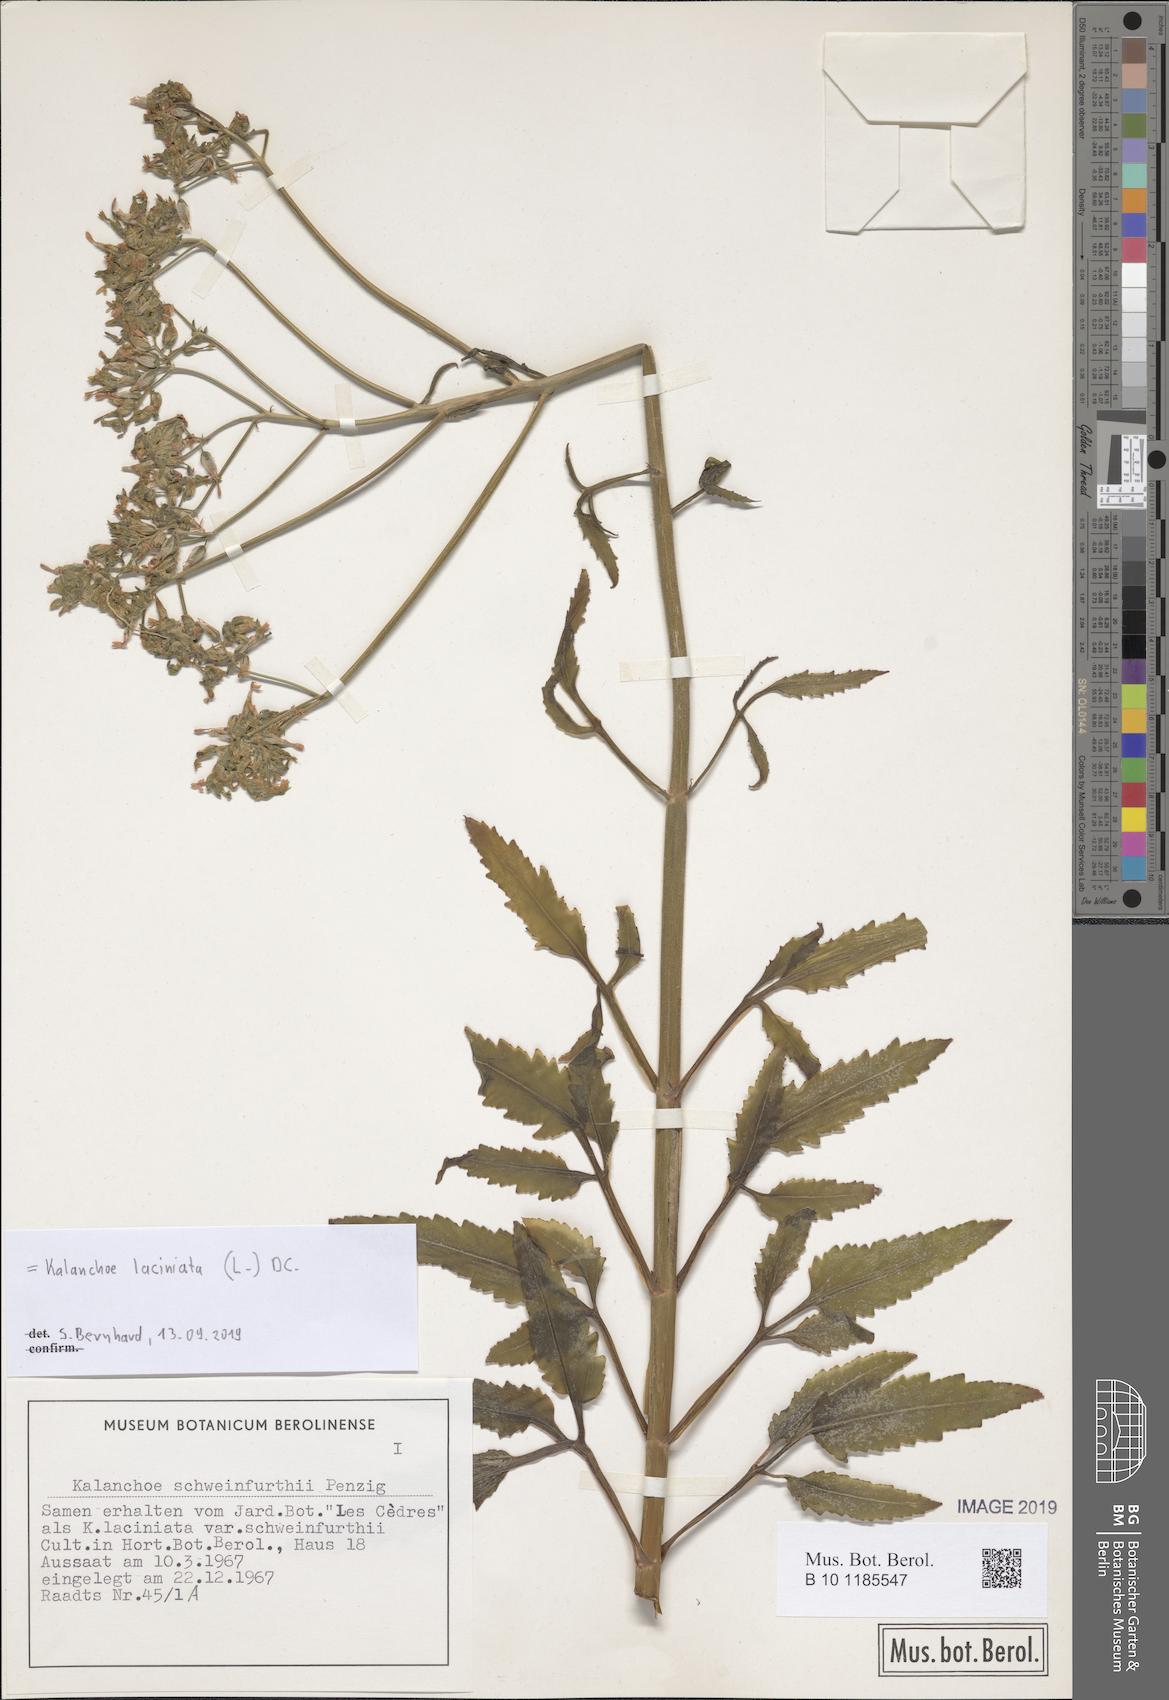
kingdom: Plantae
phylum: Tracheophyta
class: Magnoliopsida
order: Saxifragales
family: Crassulaceae
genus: Kalanchoe
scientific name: Kalanchoe laciniata
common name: Christmastree plant
